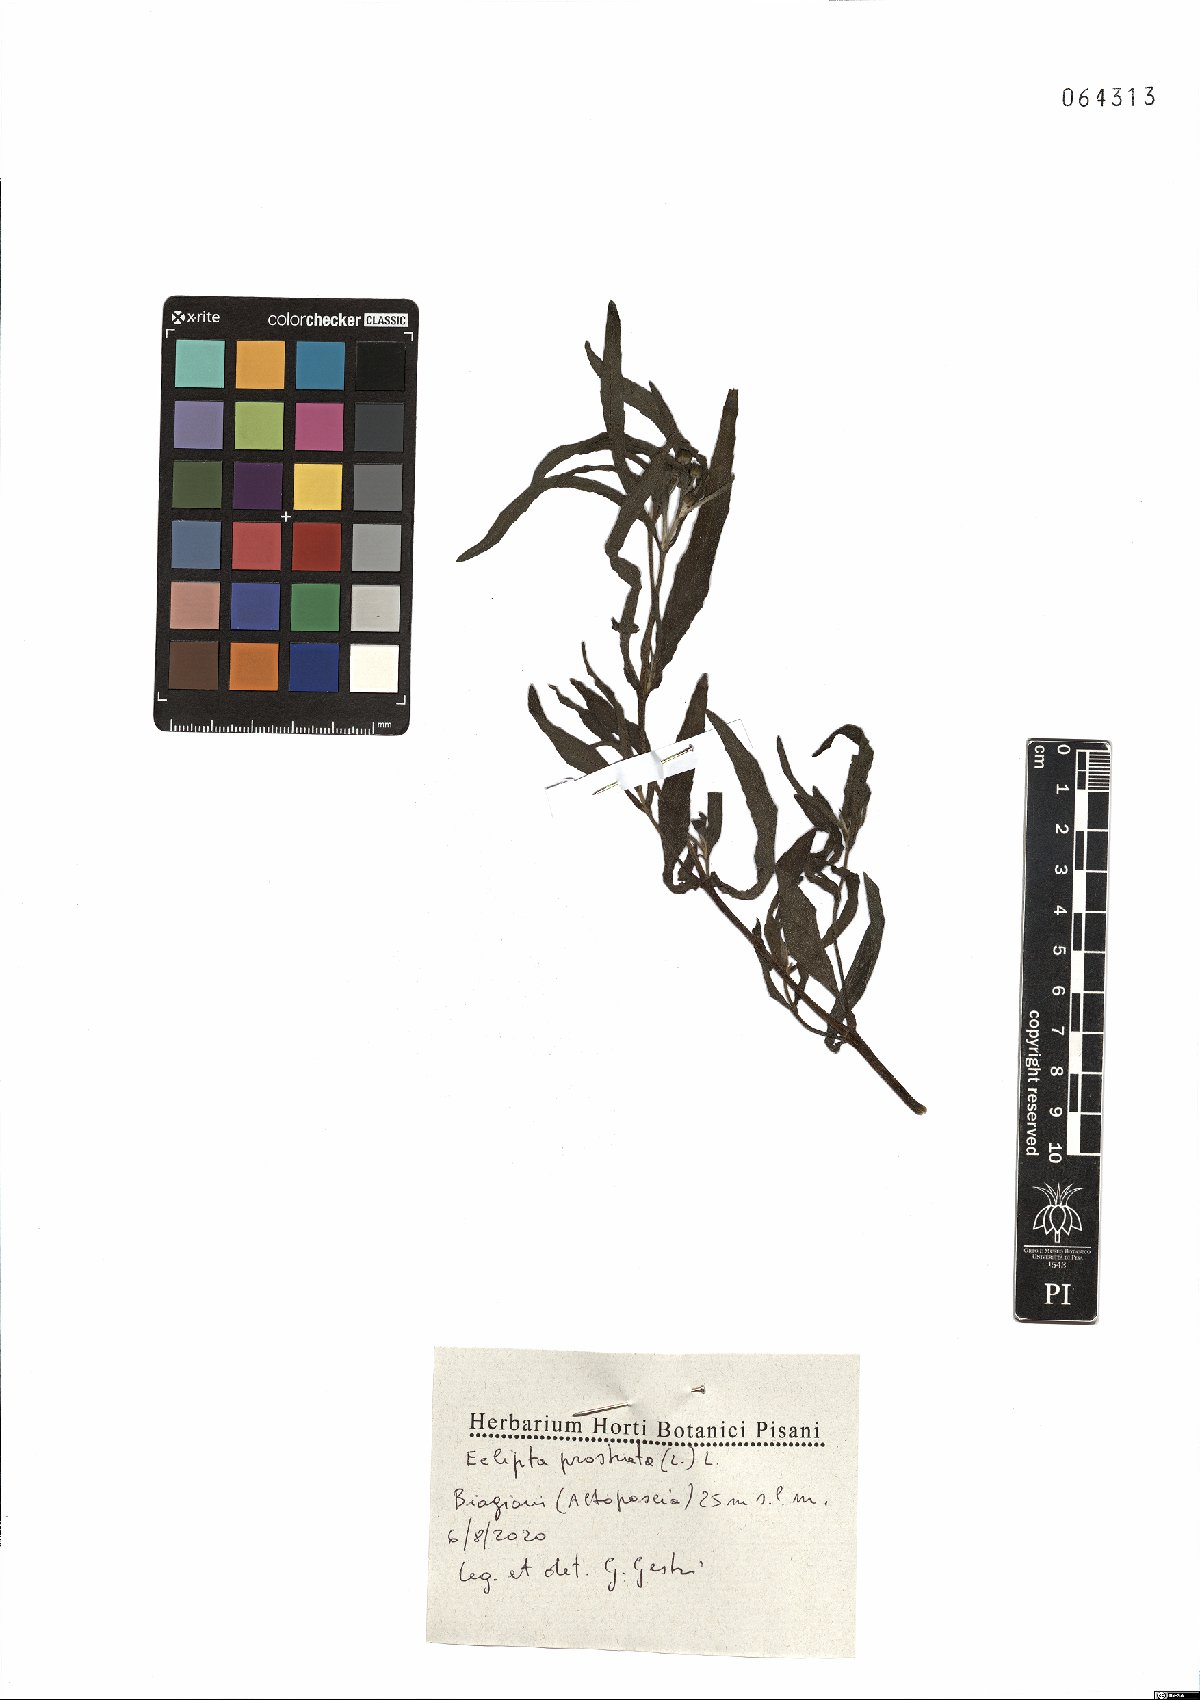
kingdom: Plantae
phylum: Tracheophyta
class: Magnoliopsida
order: Asterales
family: Asteraceae
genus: Eclipta
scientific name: Eclipta prostrata
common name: False daisy
